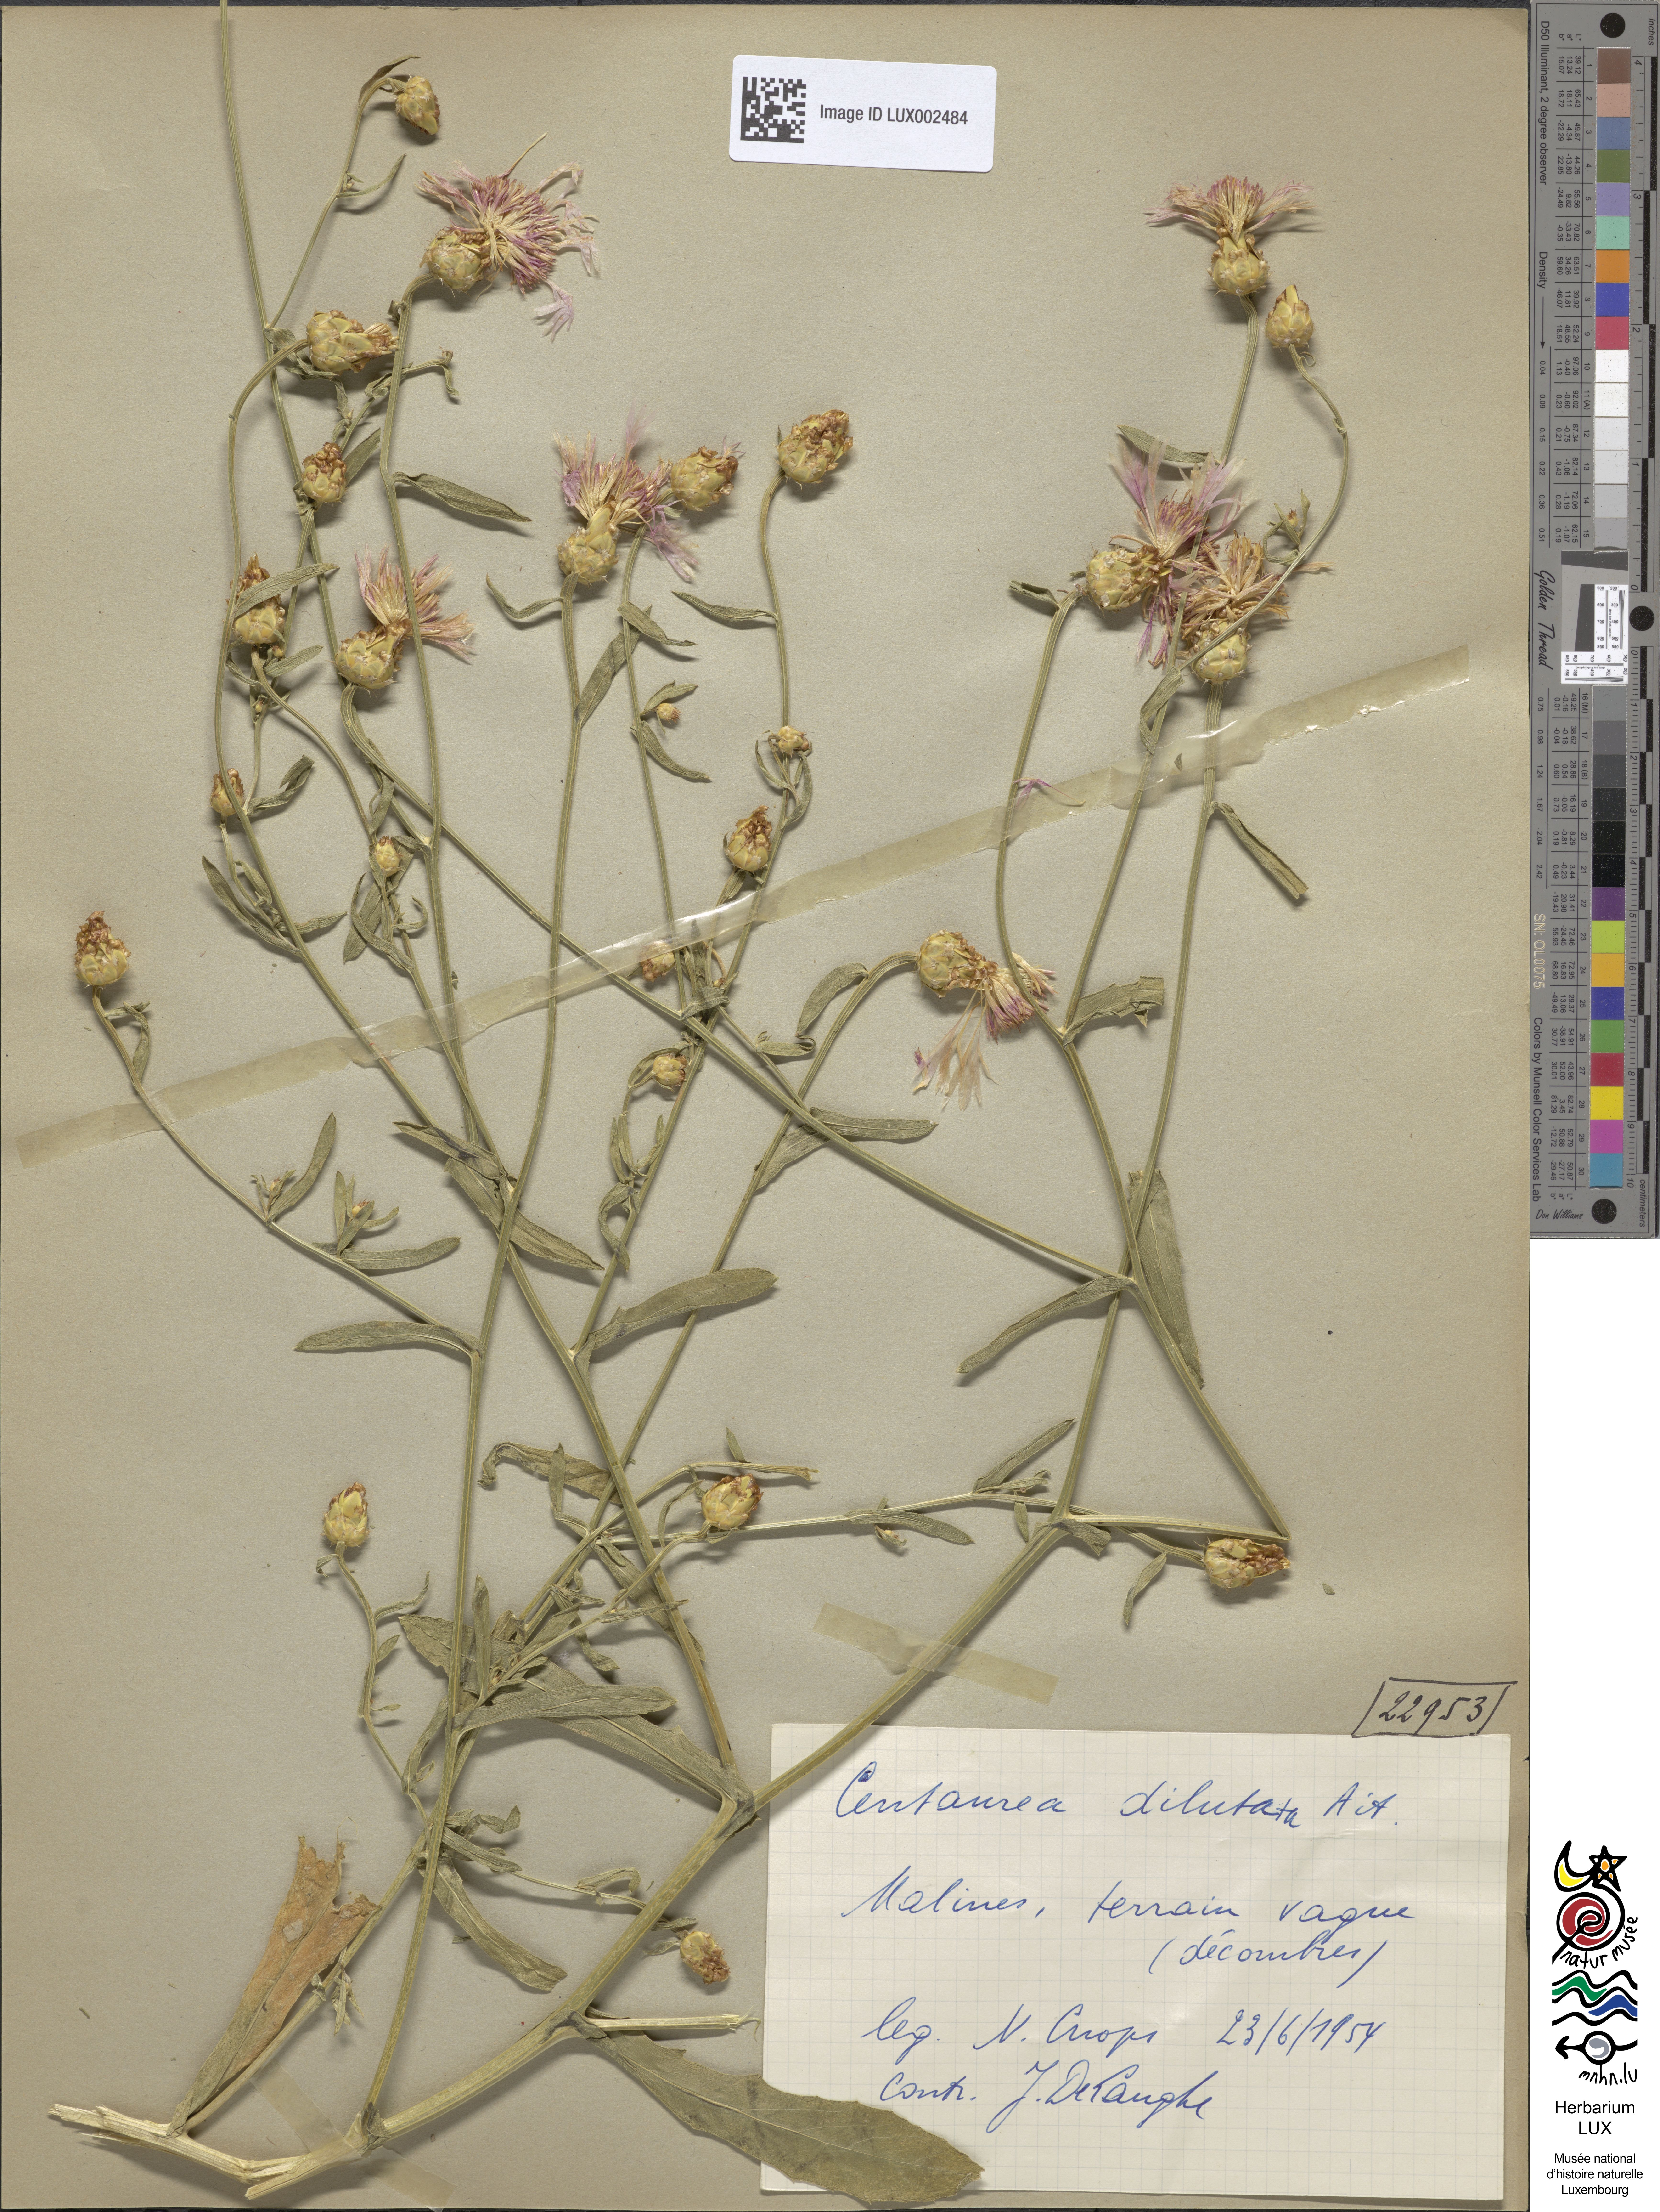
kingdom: Plantae
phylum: Tracheophyta
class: Magnoliopsida
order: Asterales
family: Asteraceae
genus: Centaurea
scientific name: Centaurea diluta
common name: Lesser star-thistle
